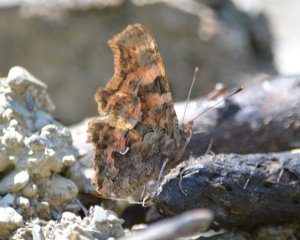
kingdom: Animalia
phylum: Arthropoda
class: Insecta
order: Lepidoptera
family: Nymphalidae
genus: Polygonia
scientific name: Polygonia faunus
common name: Green Comma
